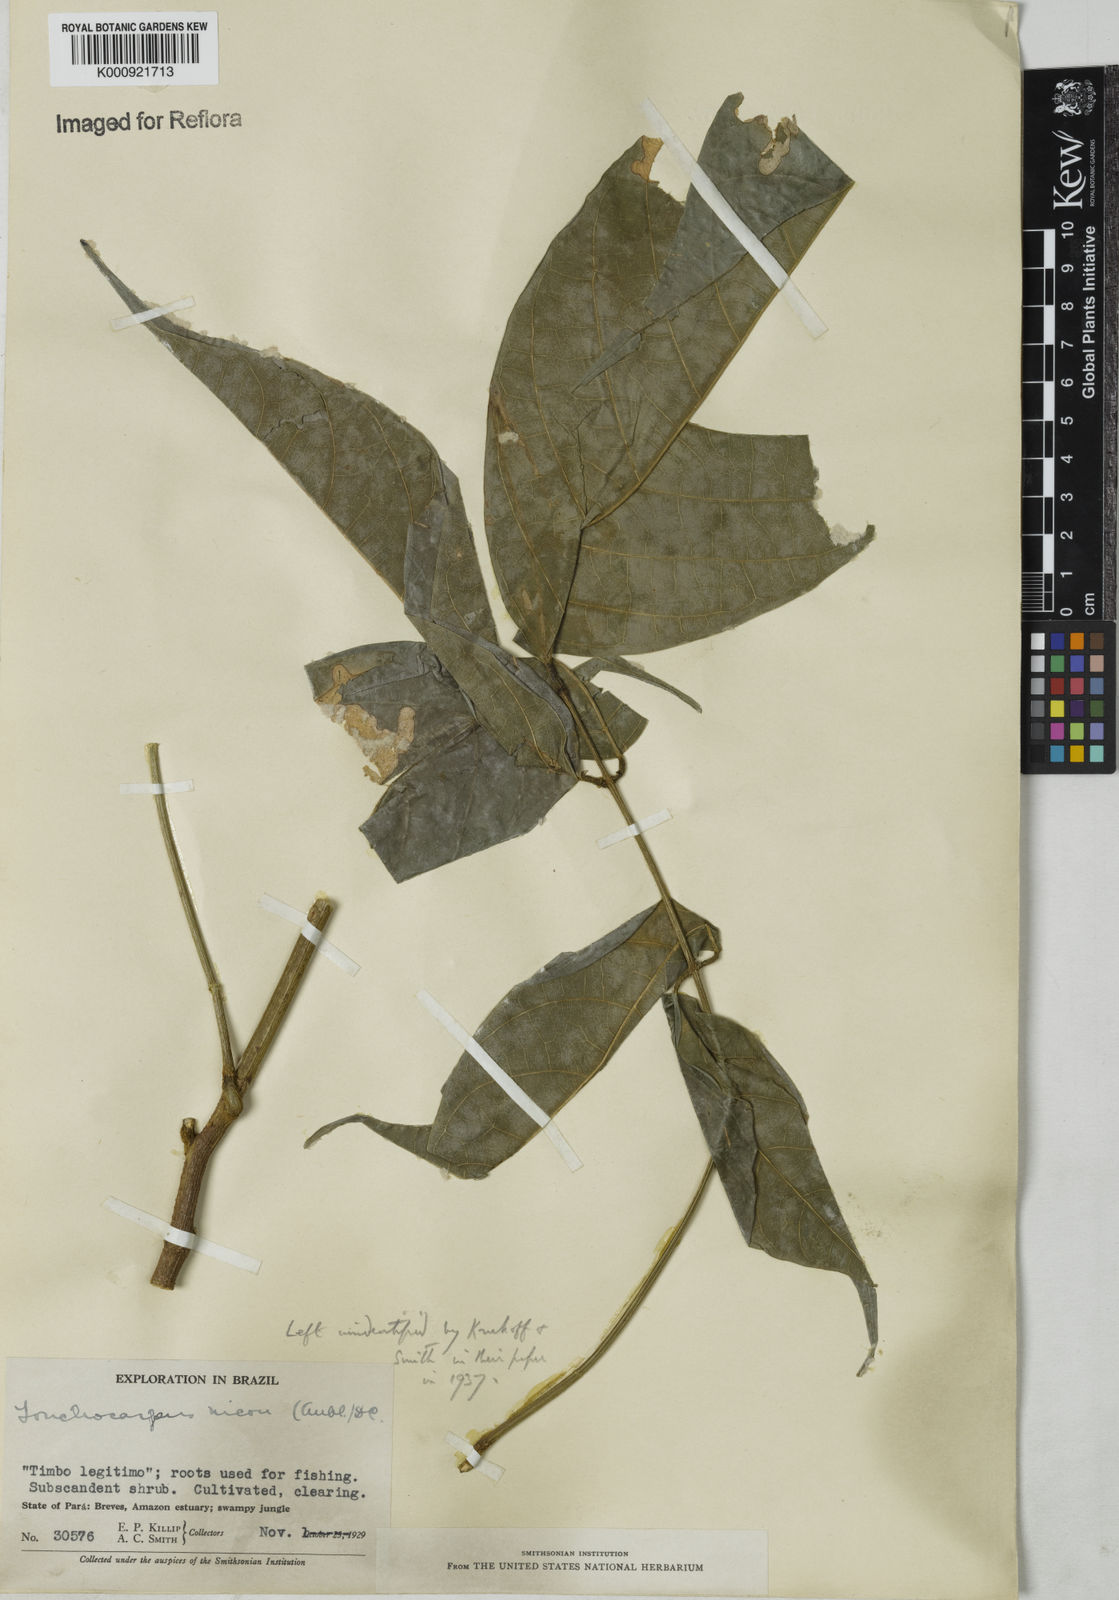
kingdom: Plantae
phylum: Tracheophyta
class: Magnoliopsida
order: Fabales
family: Fabaceae
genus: Lonchocarpus
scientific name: Lonchocarpus
